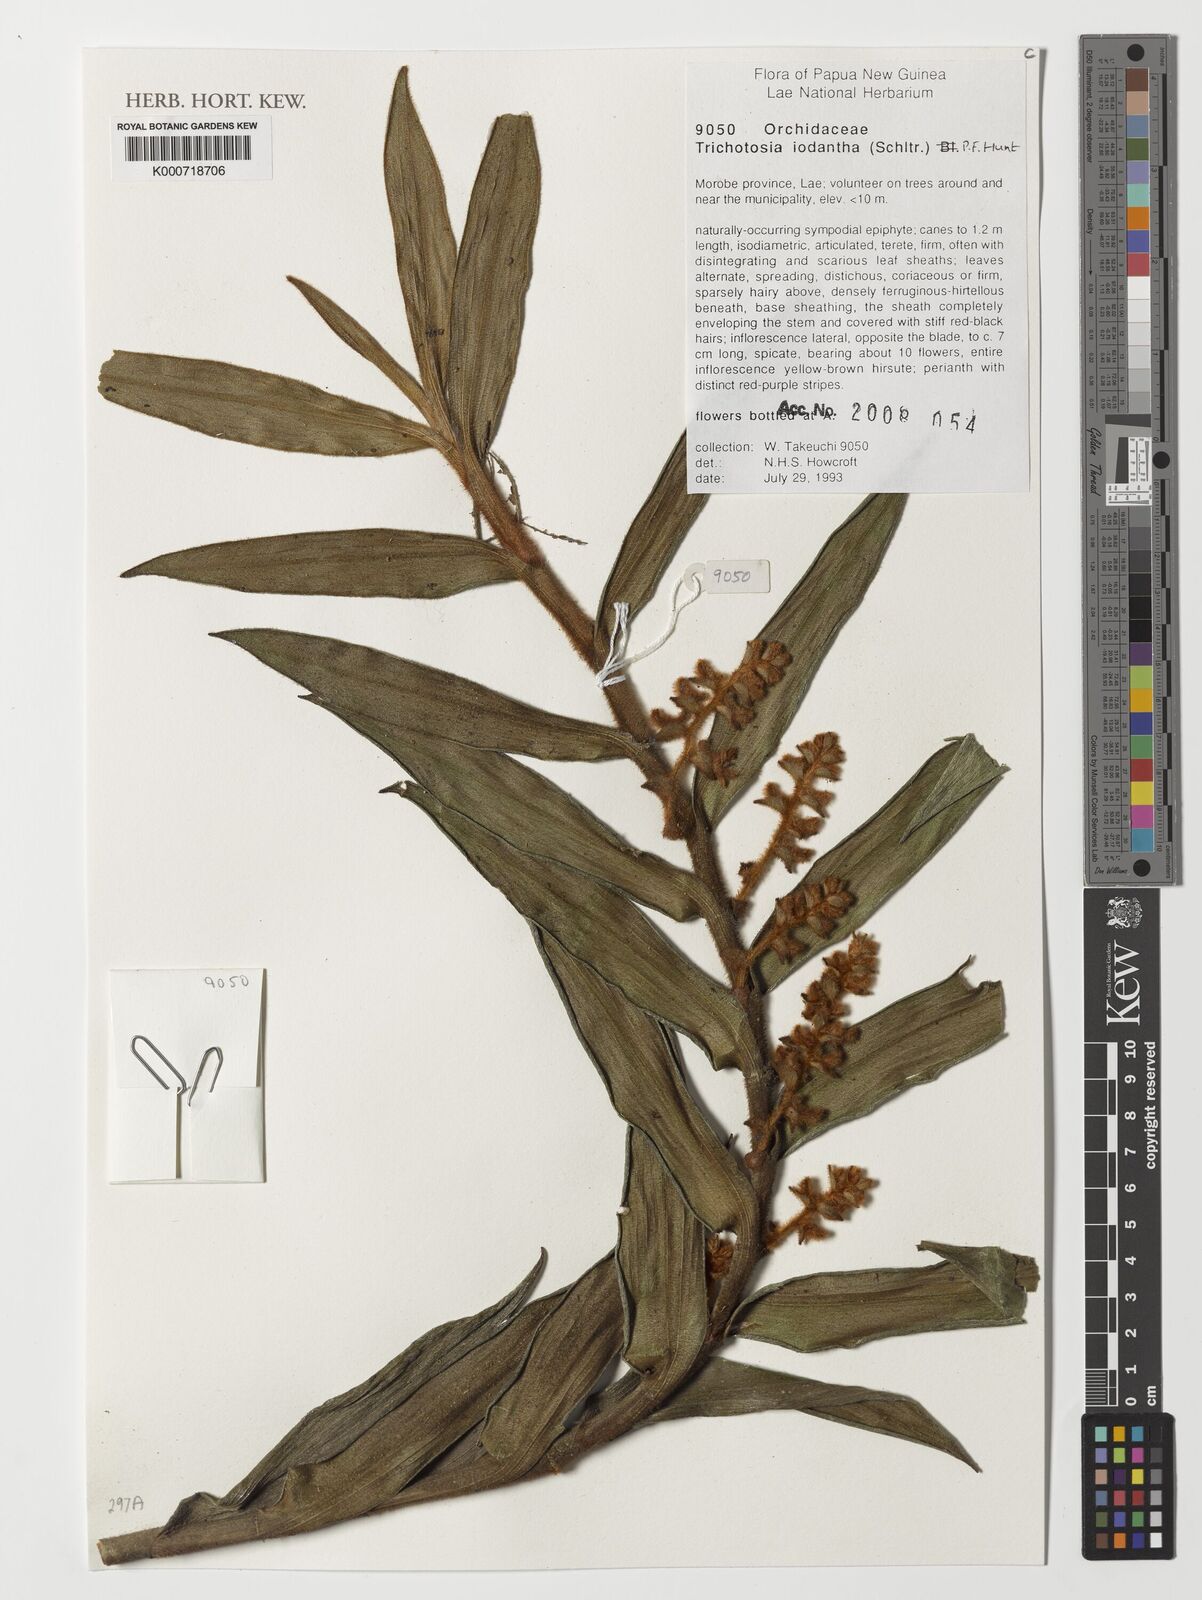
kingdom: Plantae
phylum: Tracheophyta
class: Liliopsida
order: Asparagales
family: Orchidaceae
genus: Trichotosia
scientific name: Trichotosia iodantha
